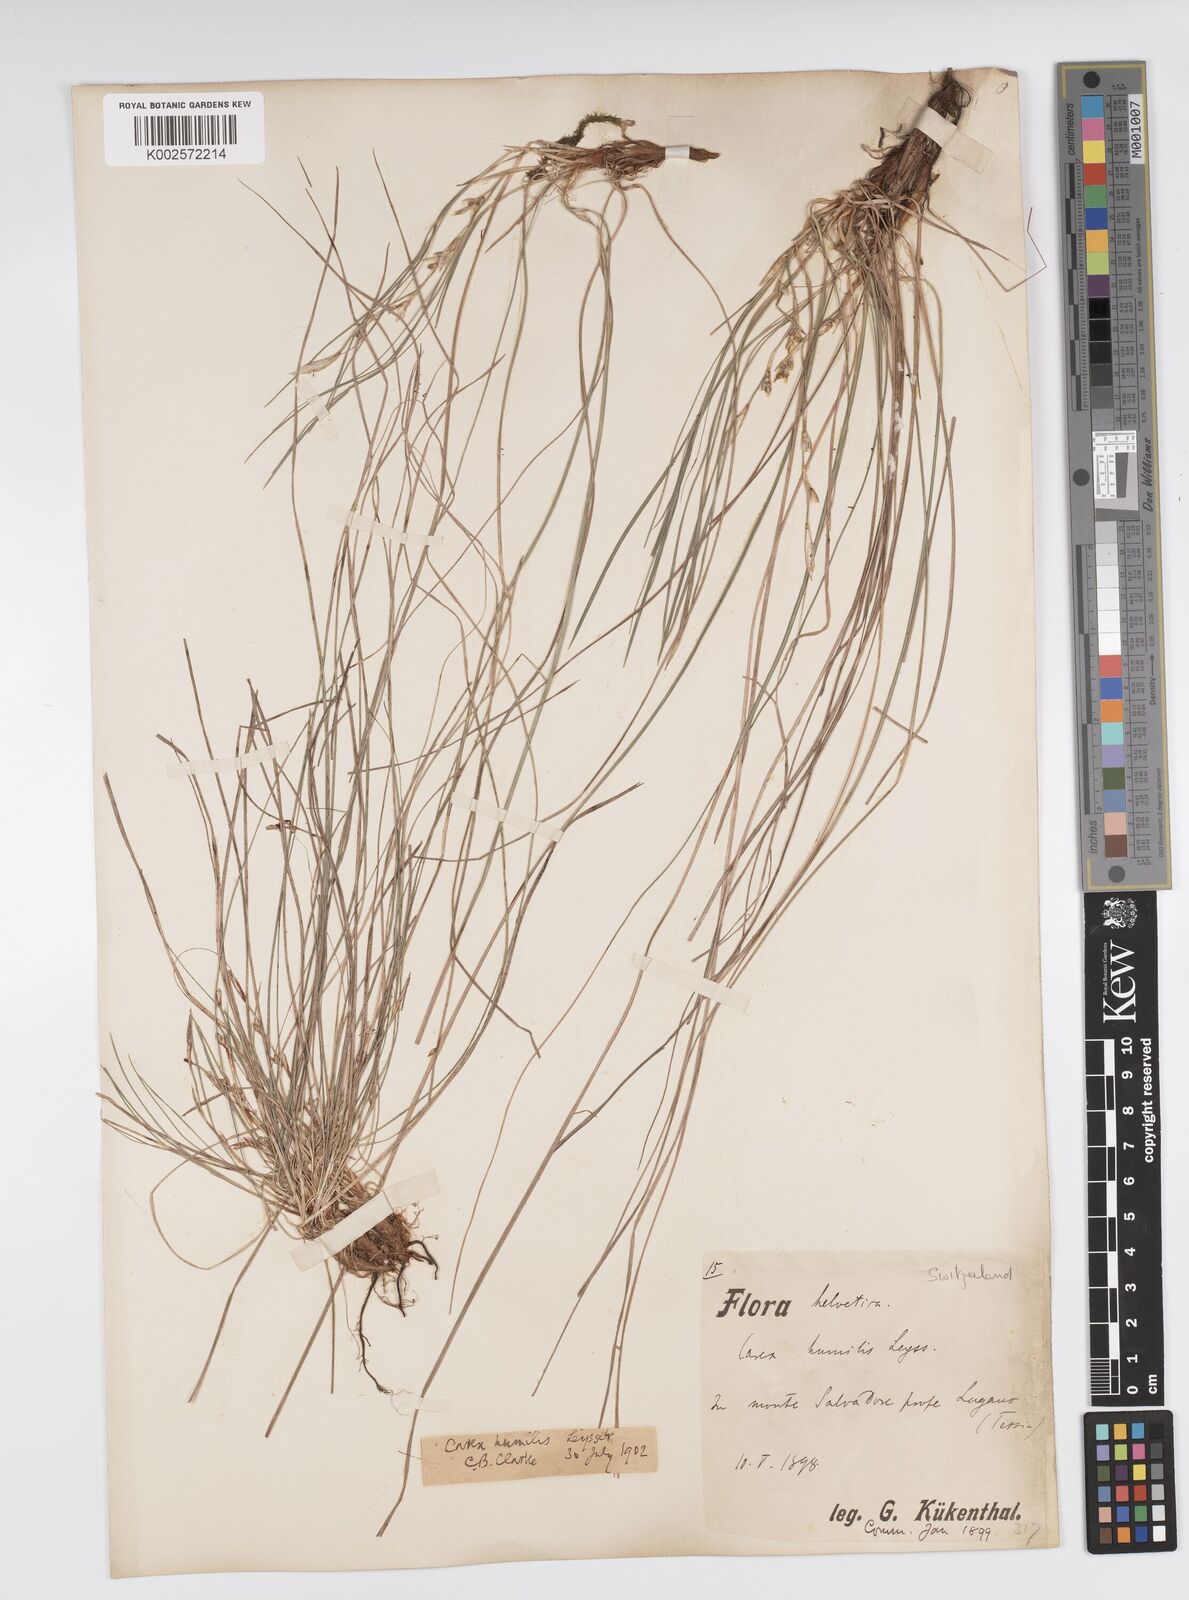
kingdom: Plantae
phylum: Tracheophyta
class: Liliopsida
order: Poales
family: Cyperaceae
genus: Carex
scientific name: Carex humilis
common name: Dwarf sedge
